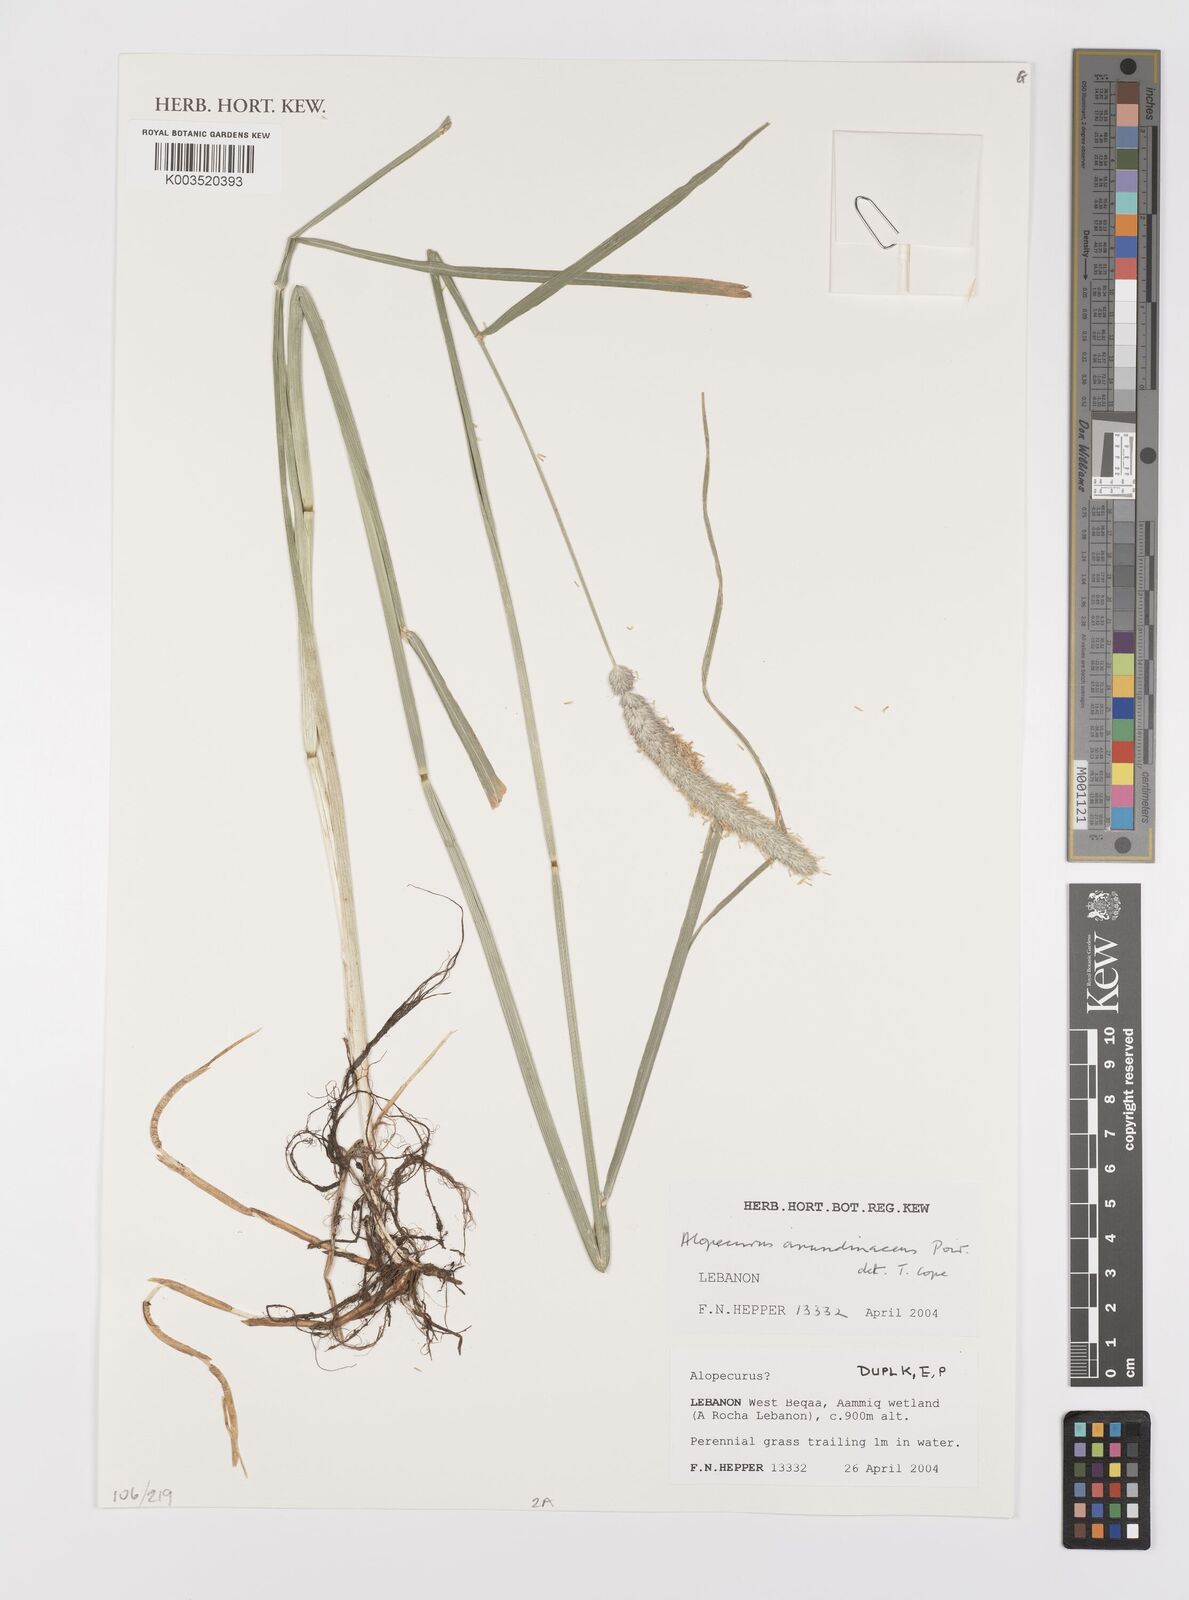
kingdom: Plantae
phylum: Tracheophyta
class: Liliopsida
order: Poales
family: Poaceae
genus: Alopecurus
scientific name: Alopecurus arundinaceus
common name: Creeping meadow foxtail
